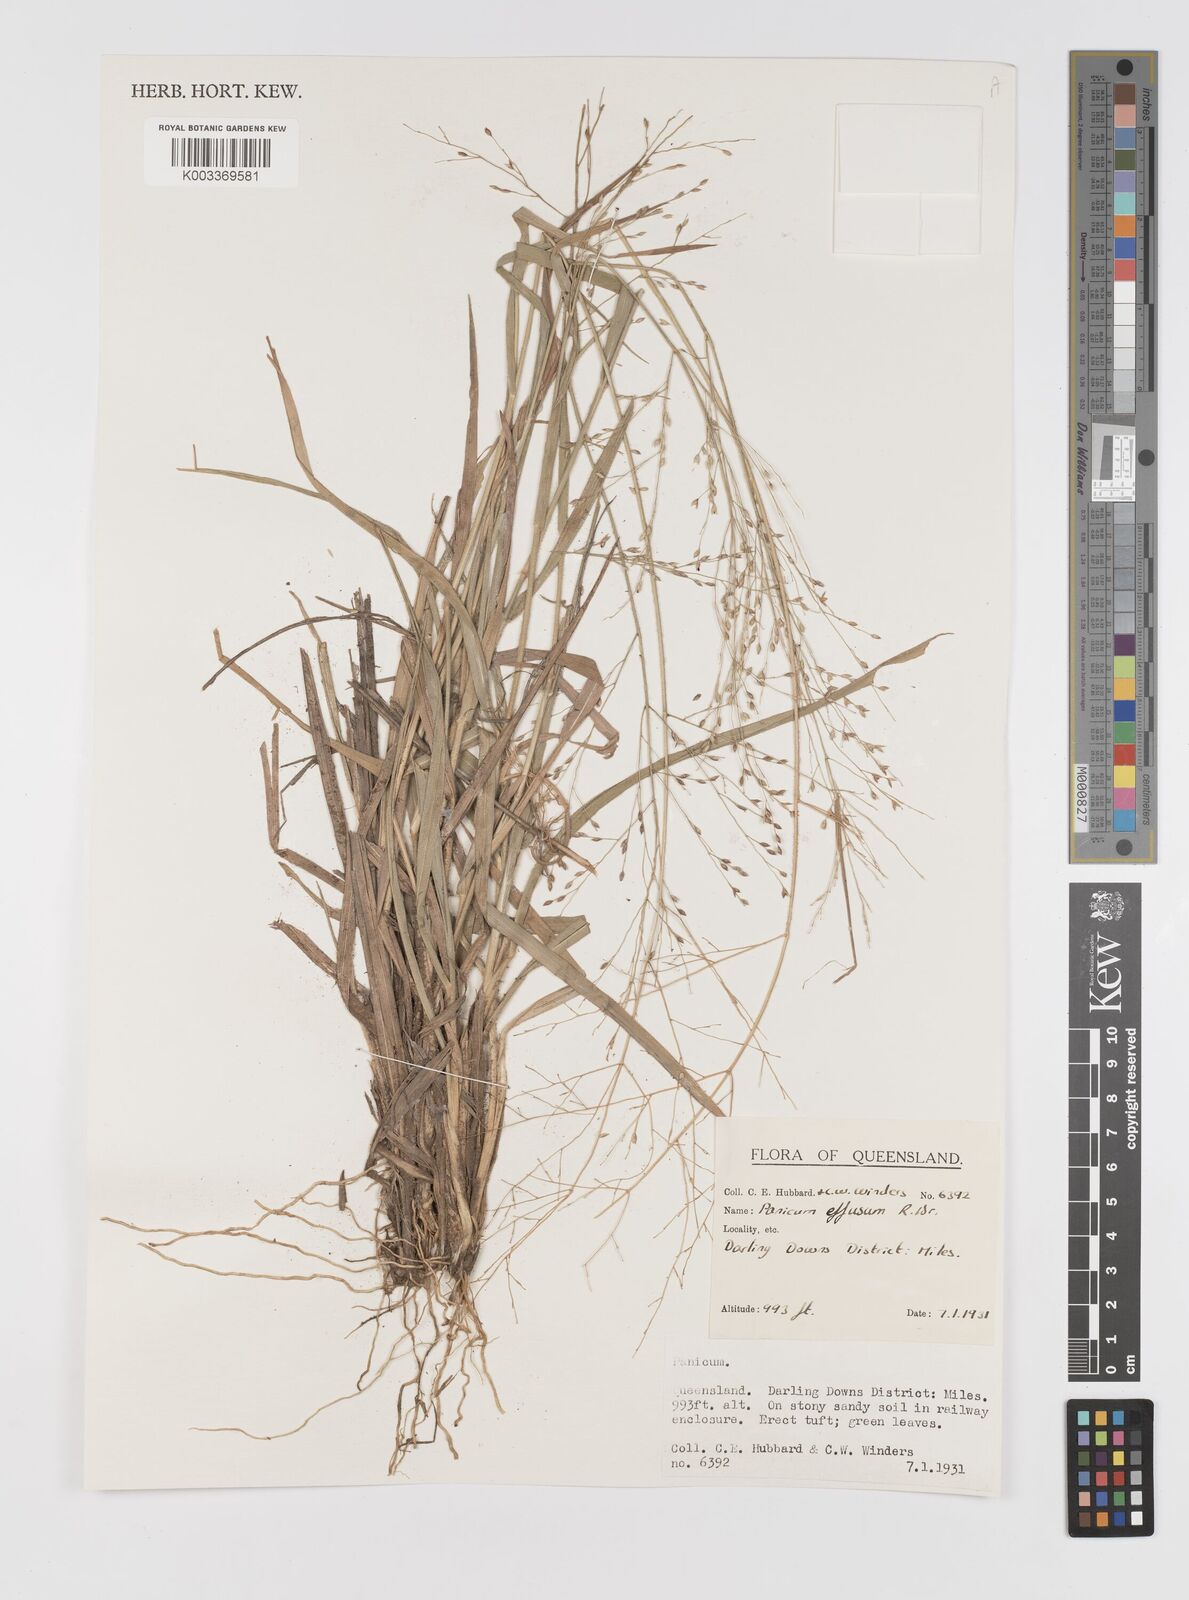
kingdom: Plantae
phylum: Tracheophyta
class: Liliopsida
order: Poales
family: Poaceae
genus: Panicum
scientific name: Panicum decompositum
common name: Australian millet
